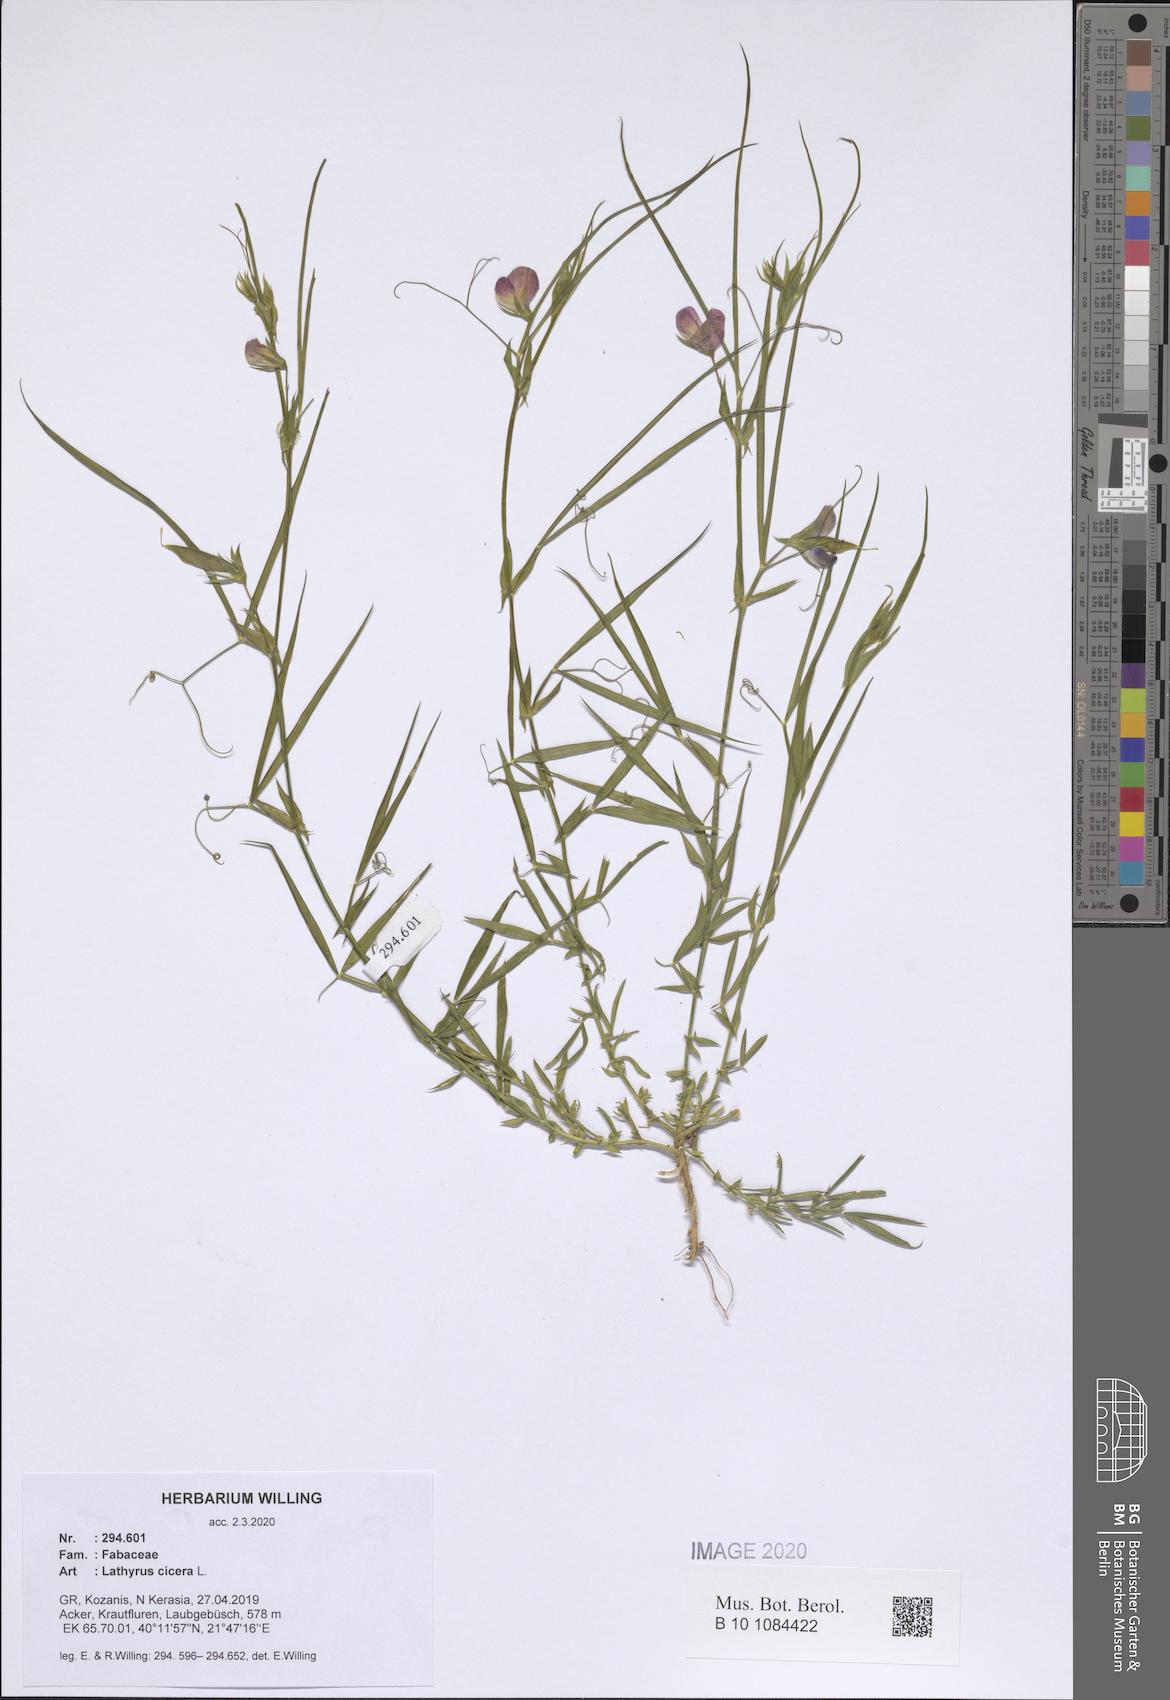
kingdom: Plantae
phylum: Tracheophyta
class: Magnoliopsida
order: Fabales
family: Fabaceae
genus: Lathyrus
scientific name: Lathyrus cicera
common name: Red vetchling
